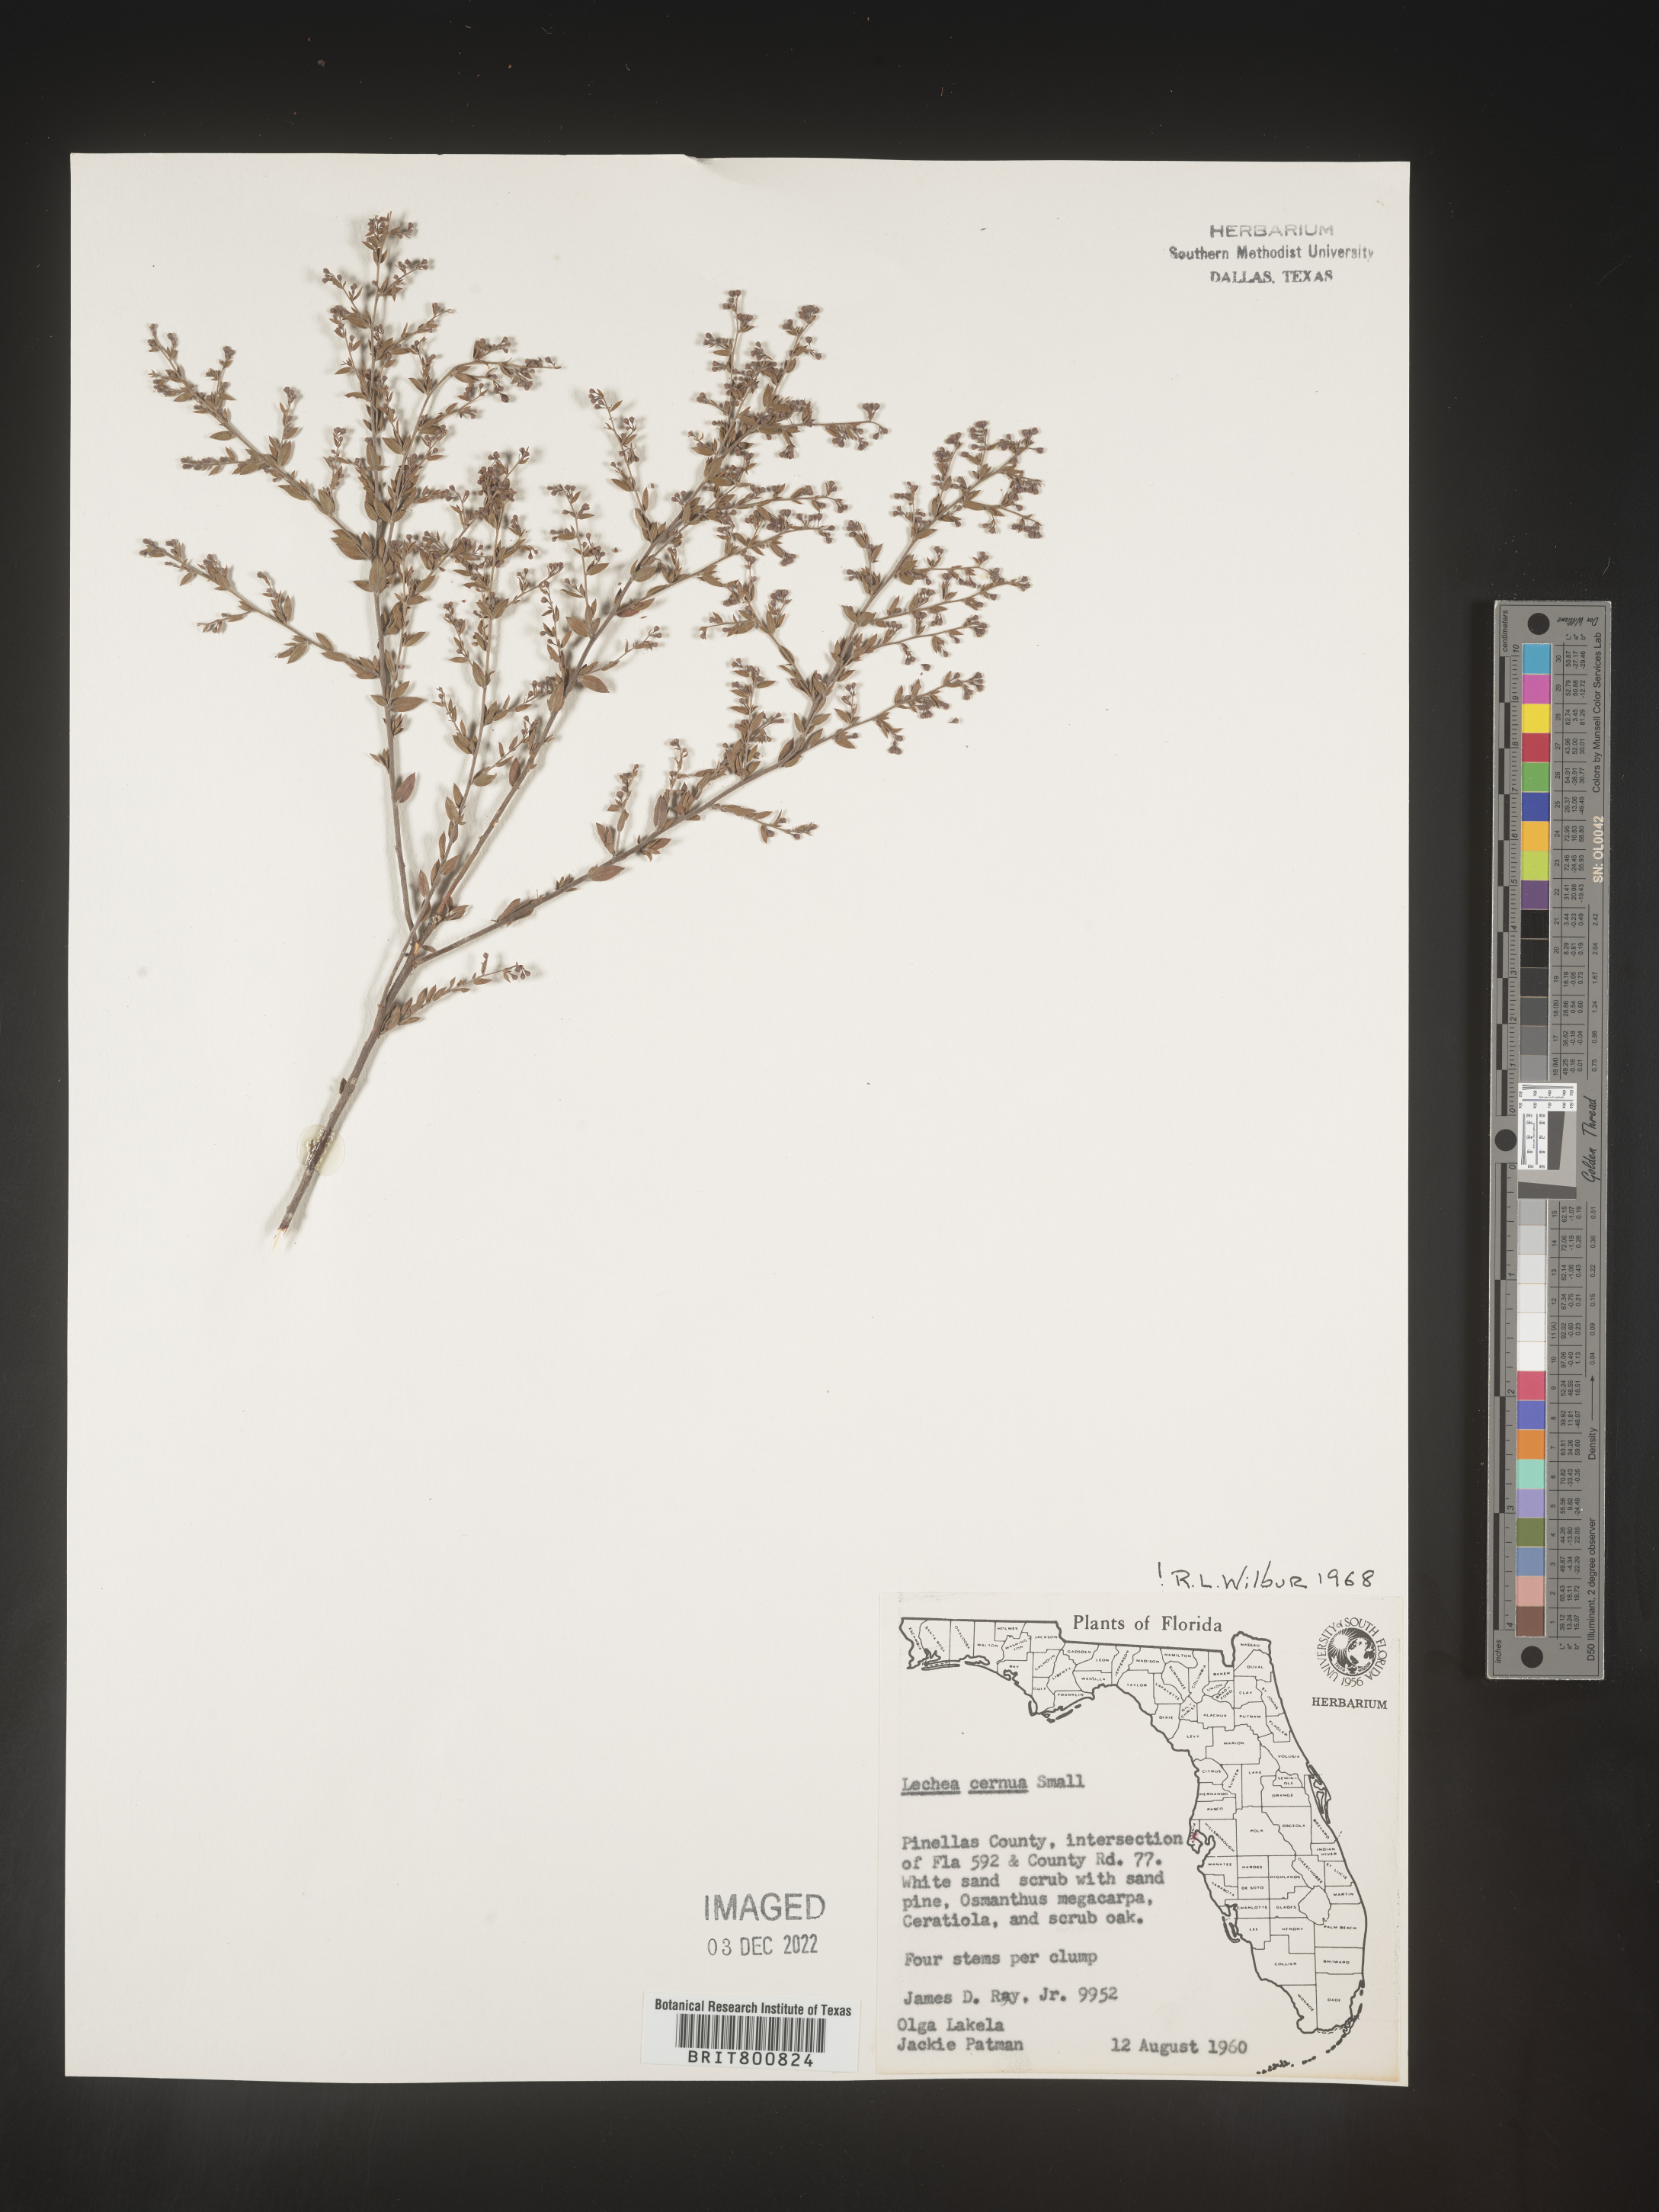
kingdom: Plantae
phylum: Tracheophyta
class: Magnoliopsida
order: Malvales
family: Cistaceae
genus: Lechea
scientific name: Lechea
